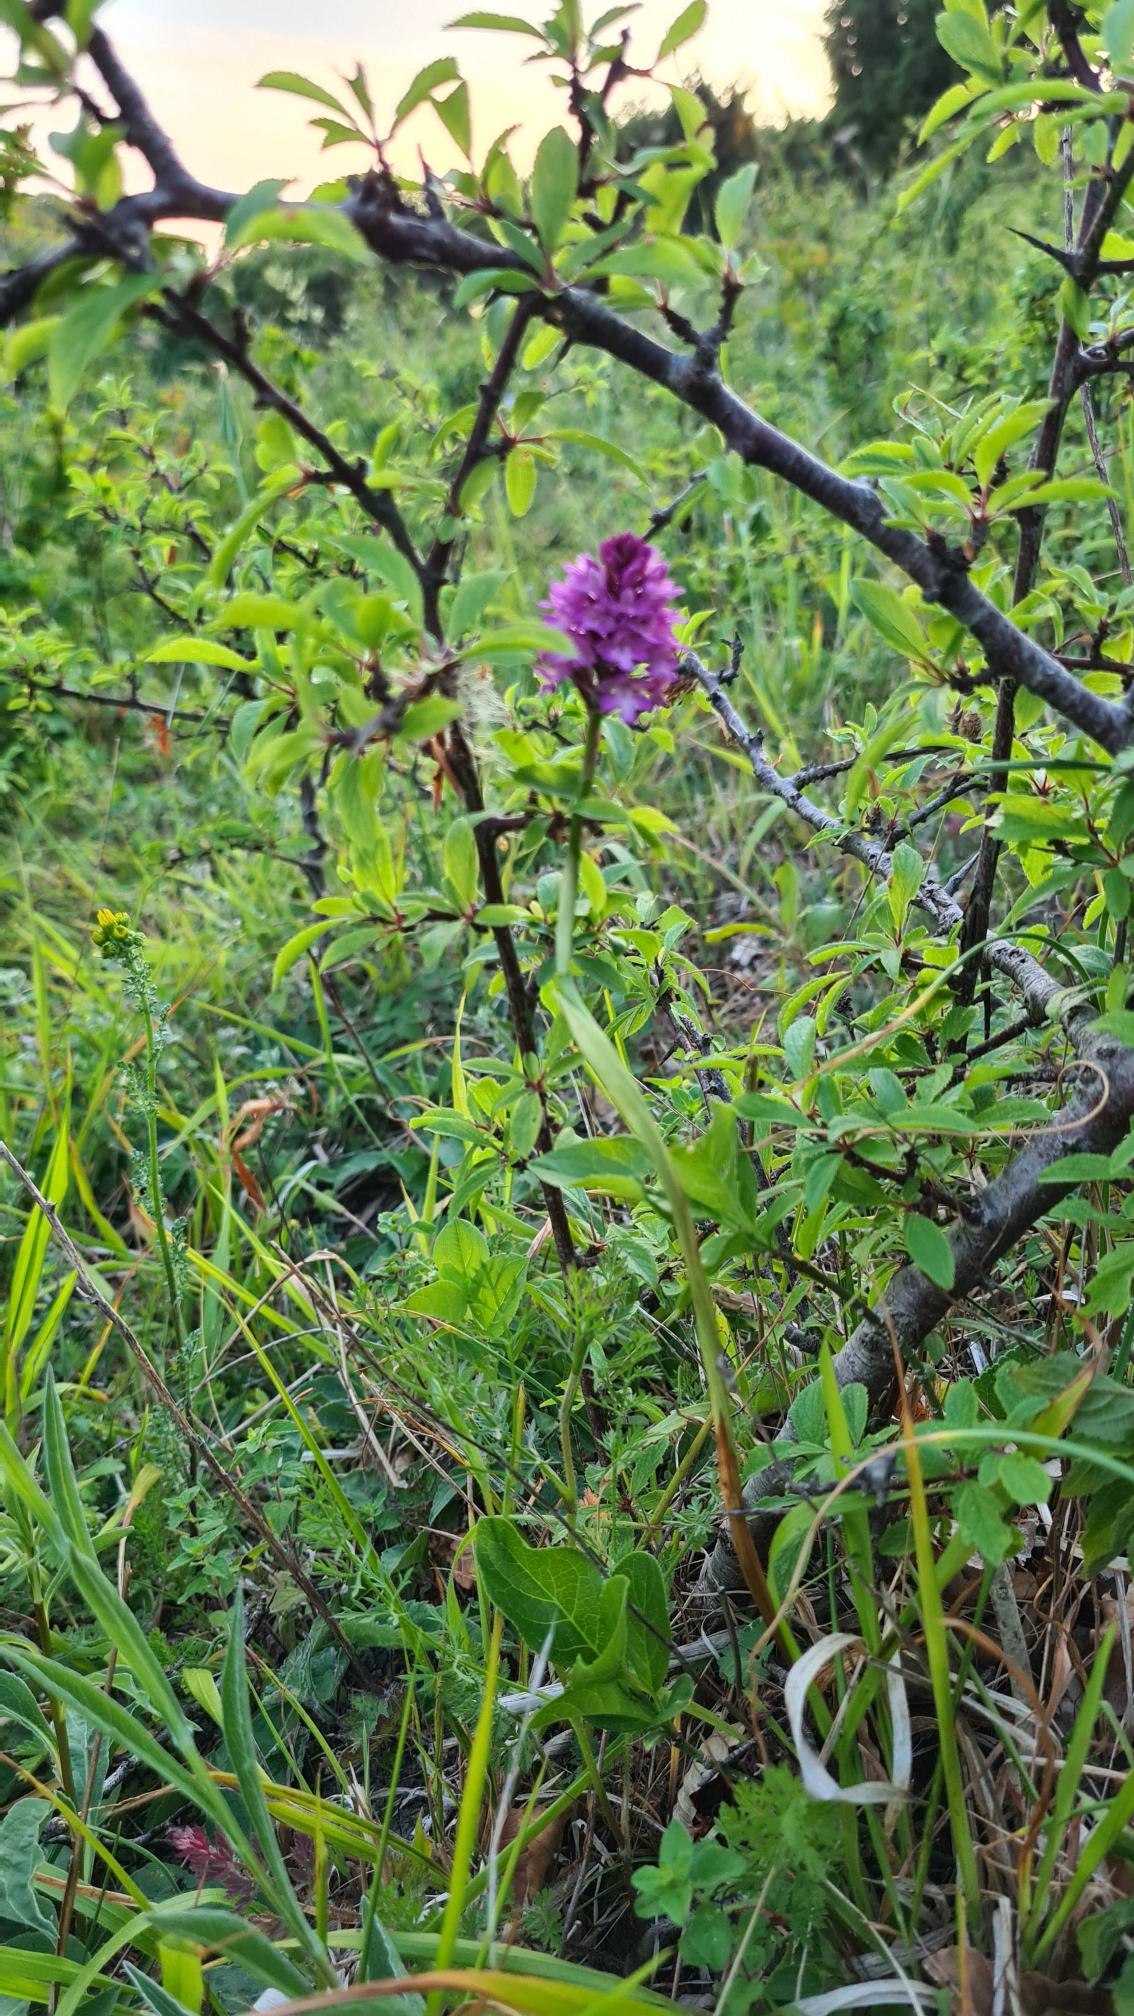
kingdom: Plantae
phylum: Tracheophyta
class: Liliopsida
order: Asparagales
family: Orchidaceae
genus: Anacamptis
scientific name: Anacamptis pyramidalis
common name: Horndrager
